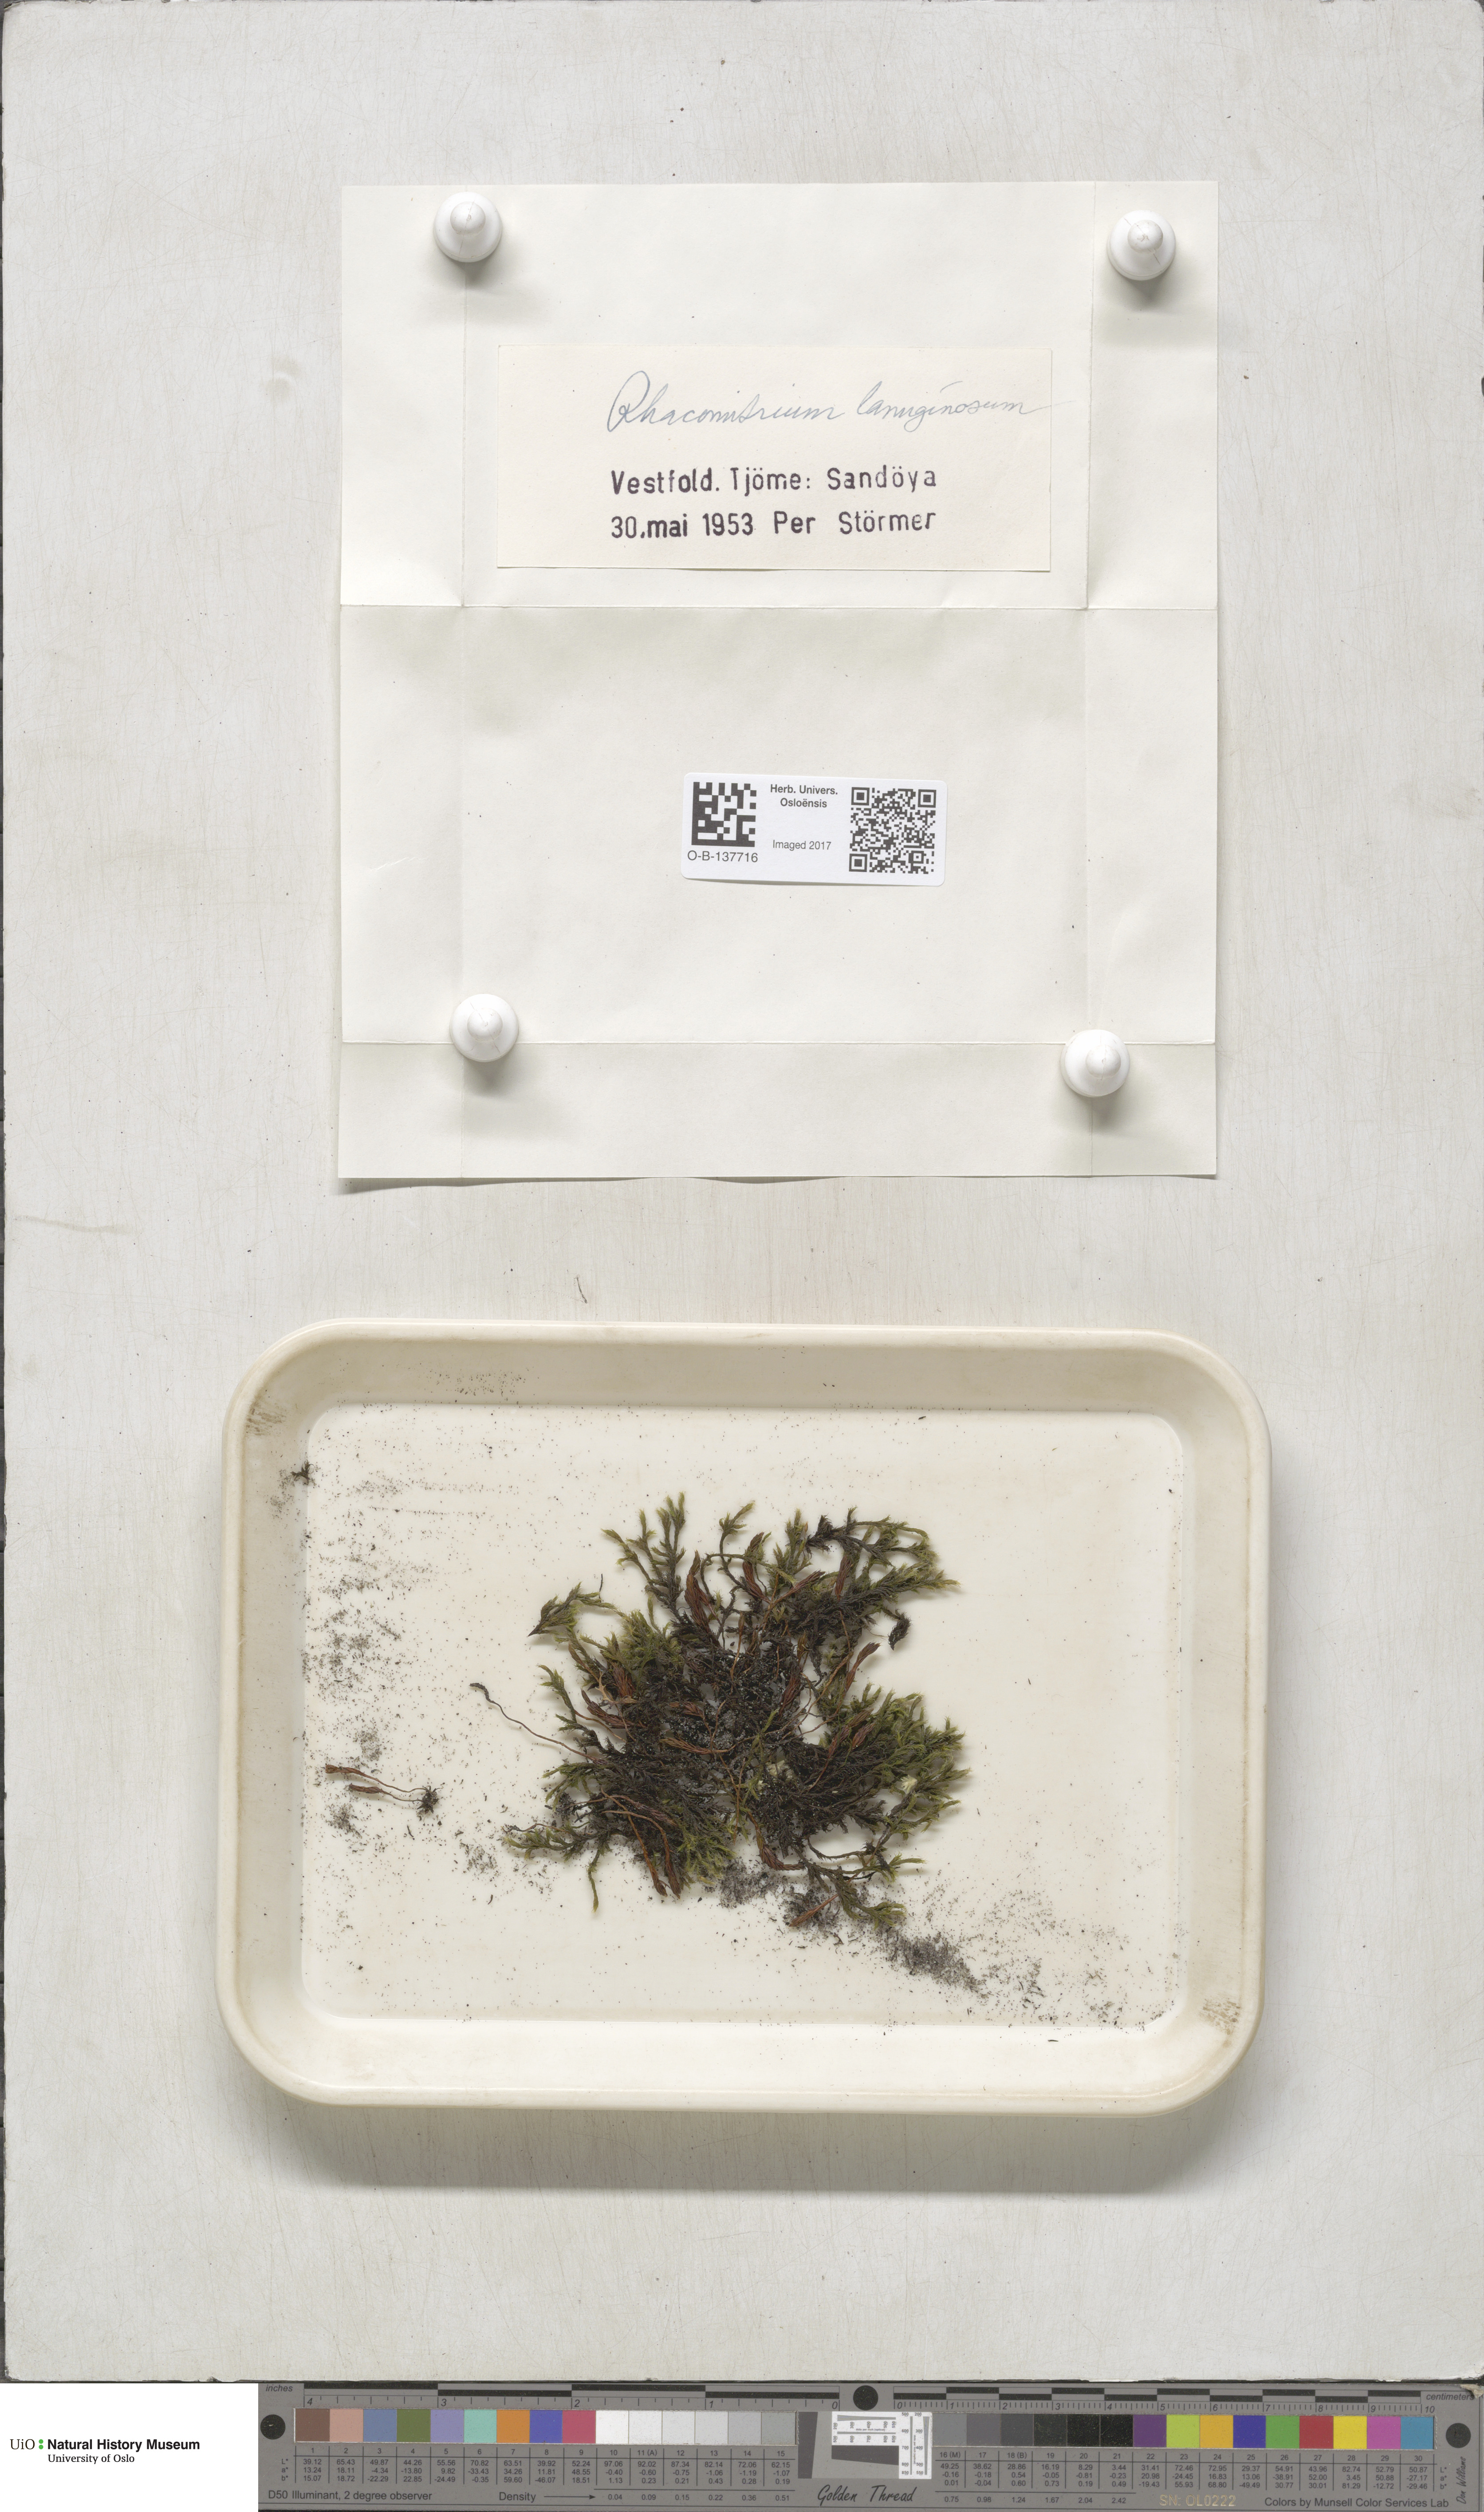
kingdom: Plantae
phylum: Bryophyta
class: Bryopsida
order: Grimmiales
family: Grimmiaceae
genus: Racomitrium
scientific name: Racomitrium lanuginosum
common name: Hoary rock moss
